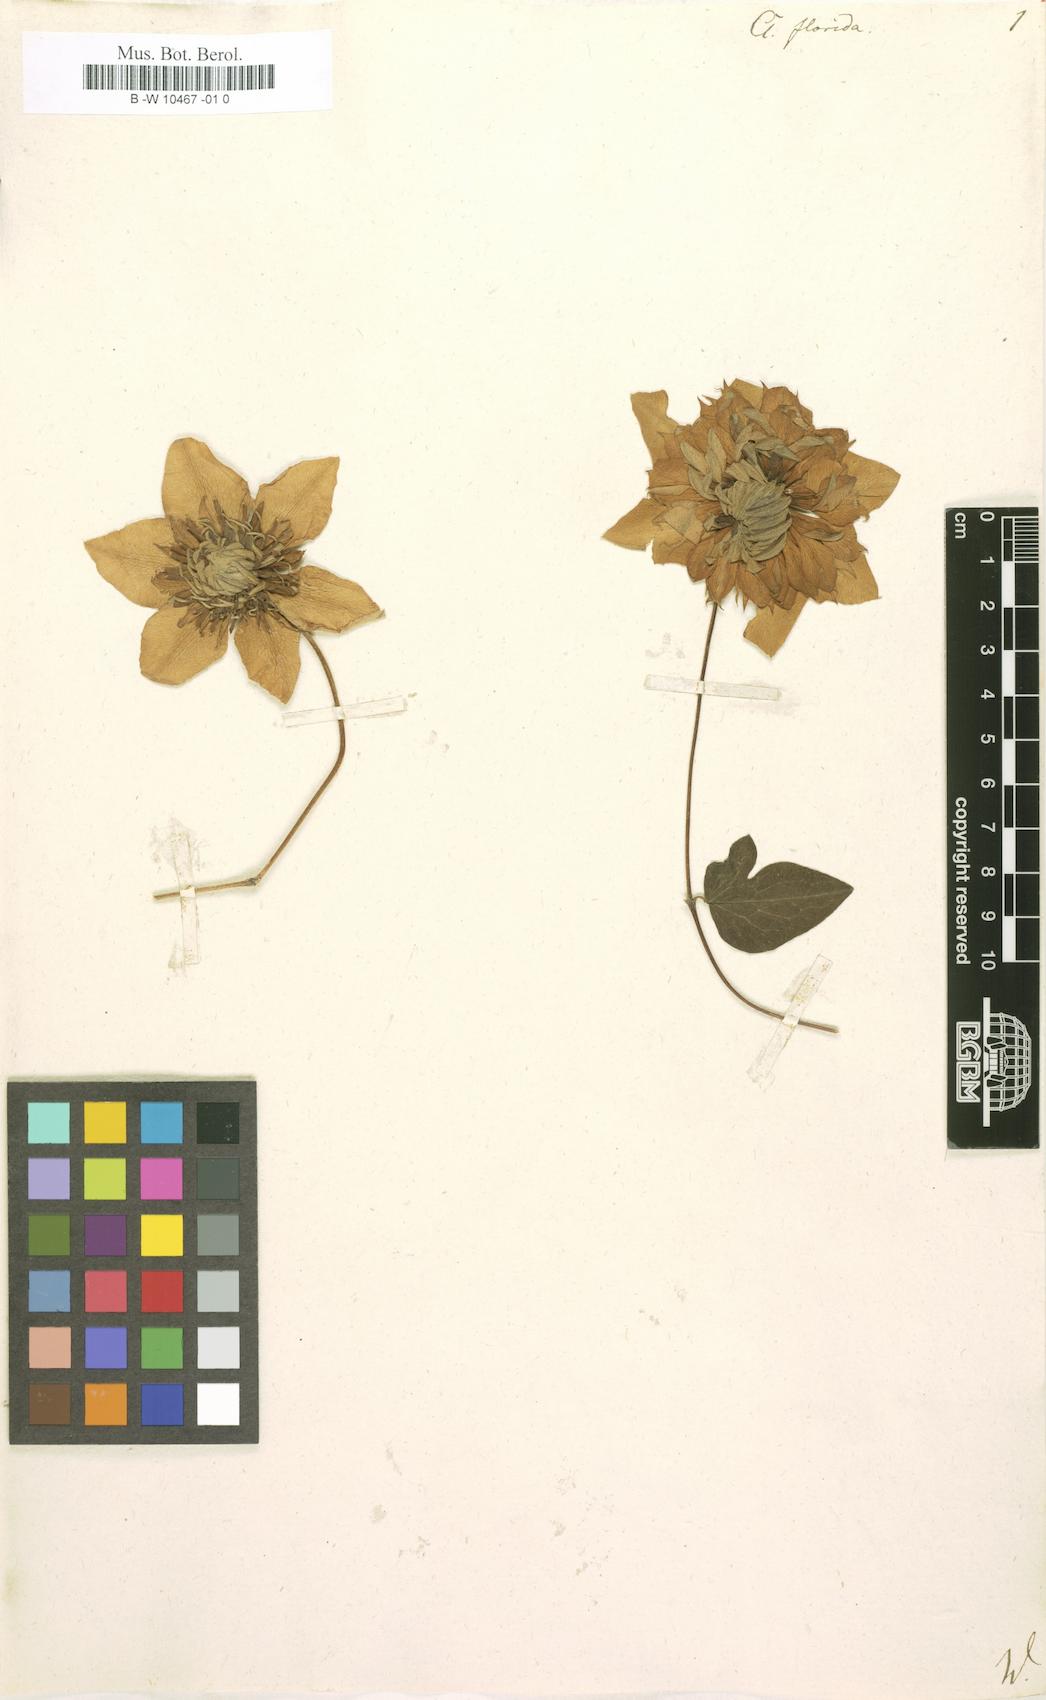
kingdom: Plantae
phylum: Tracheophyta
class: Magnoliopsida
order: Ranunculales
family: Ranunculaceae
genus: Clematis
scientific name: Clematis florida
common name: Asian virginsbower
